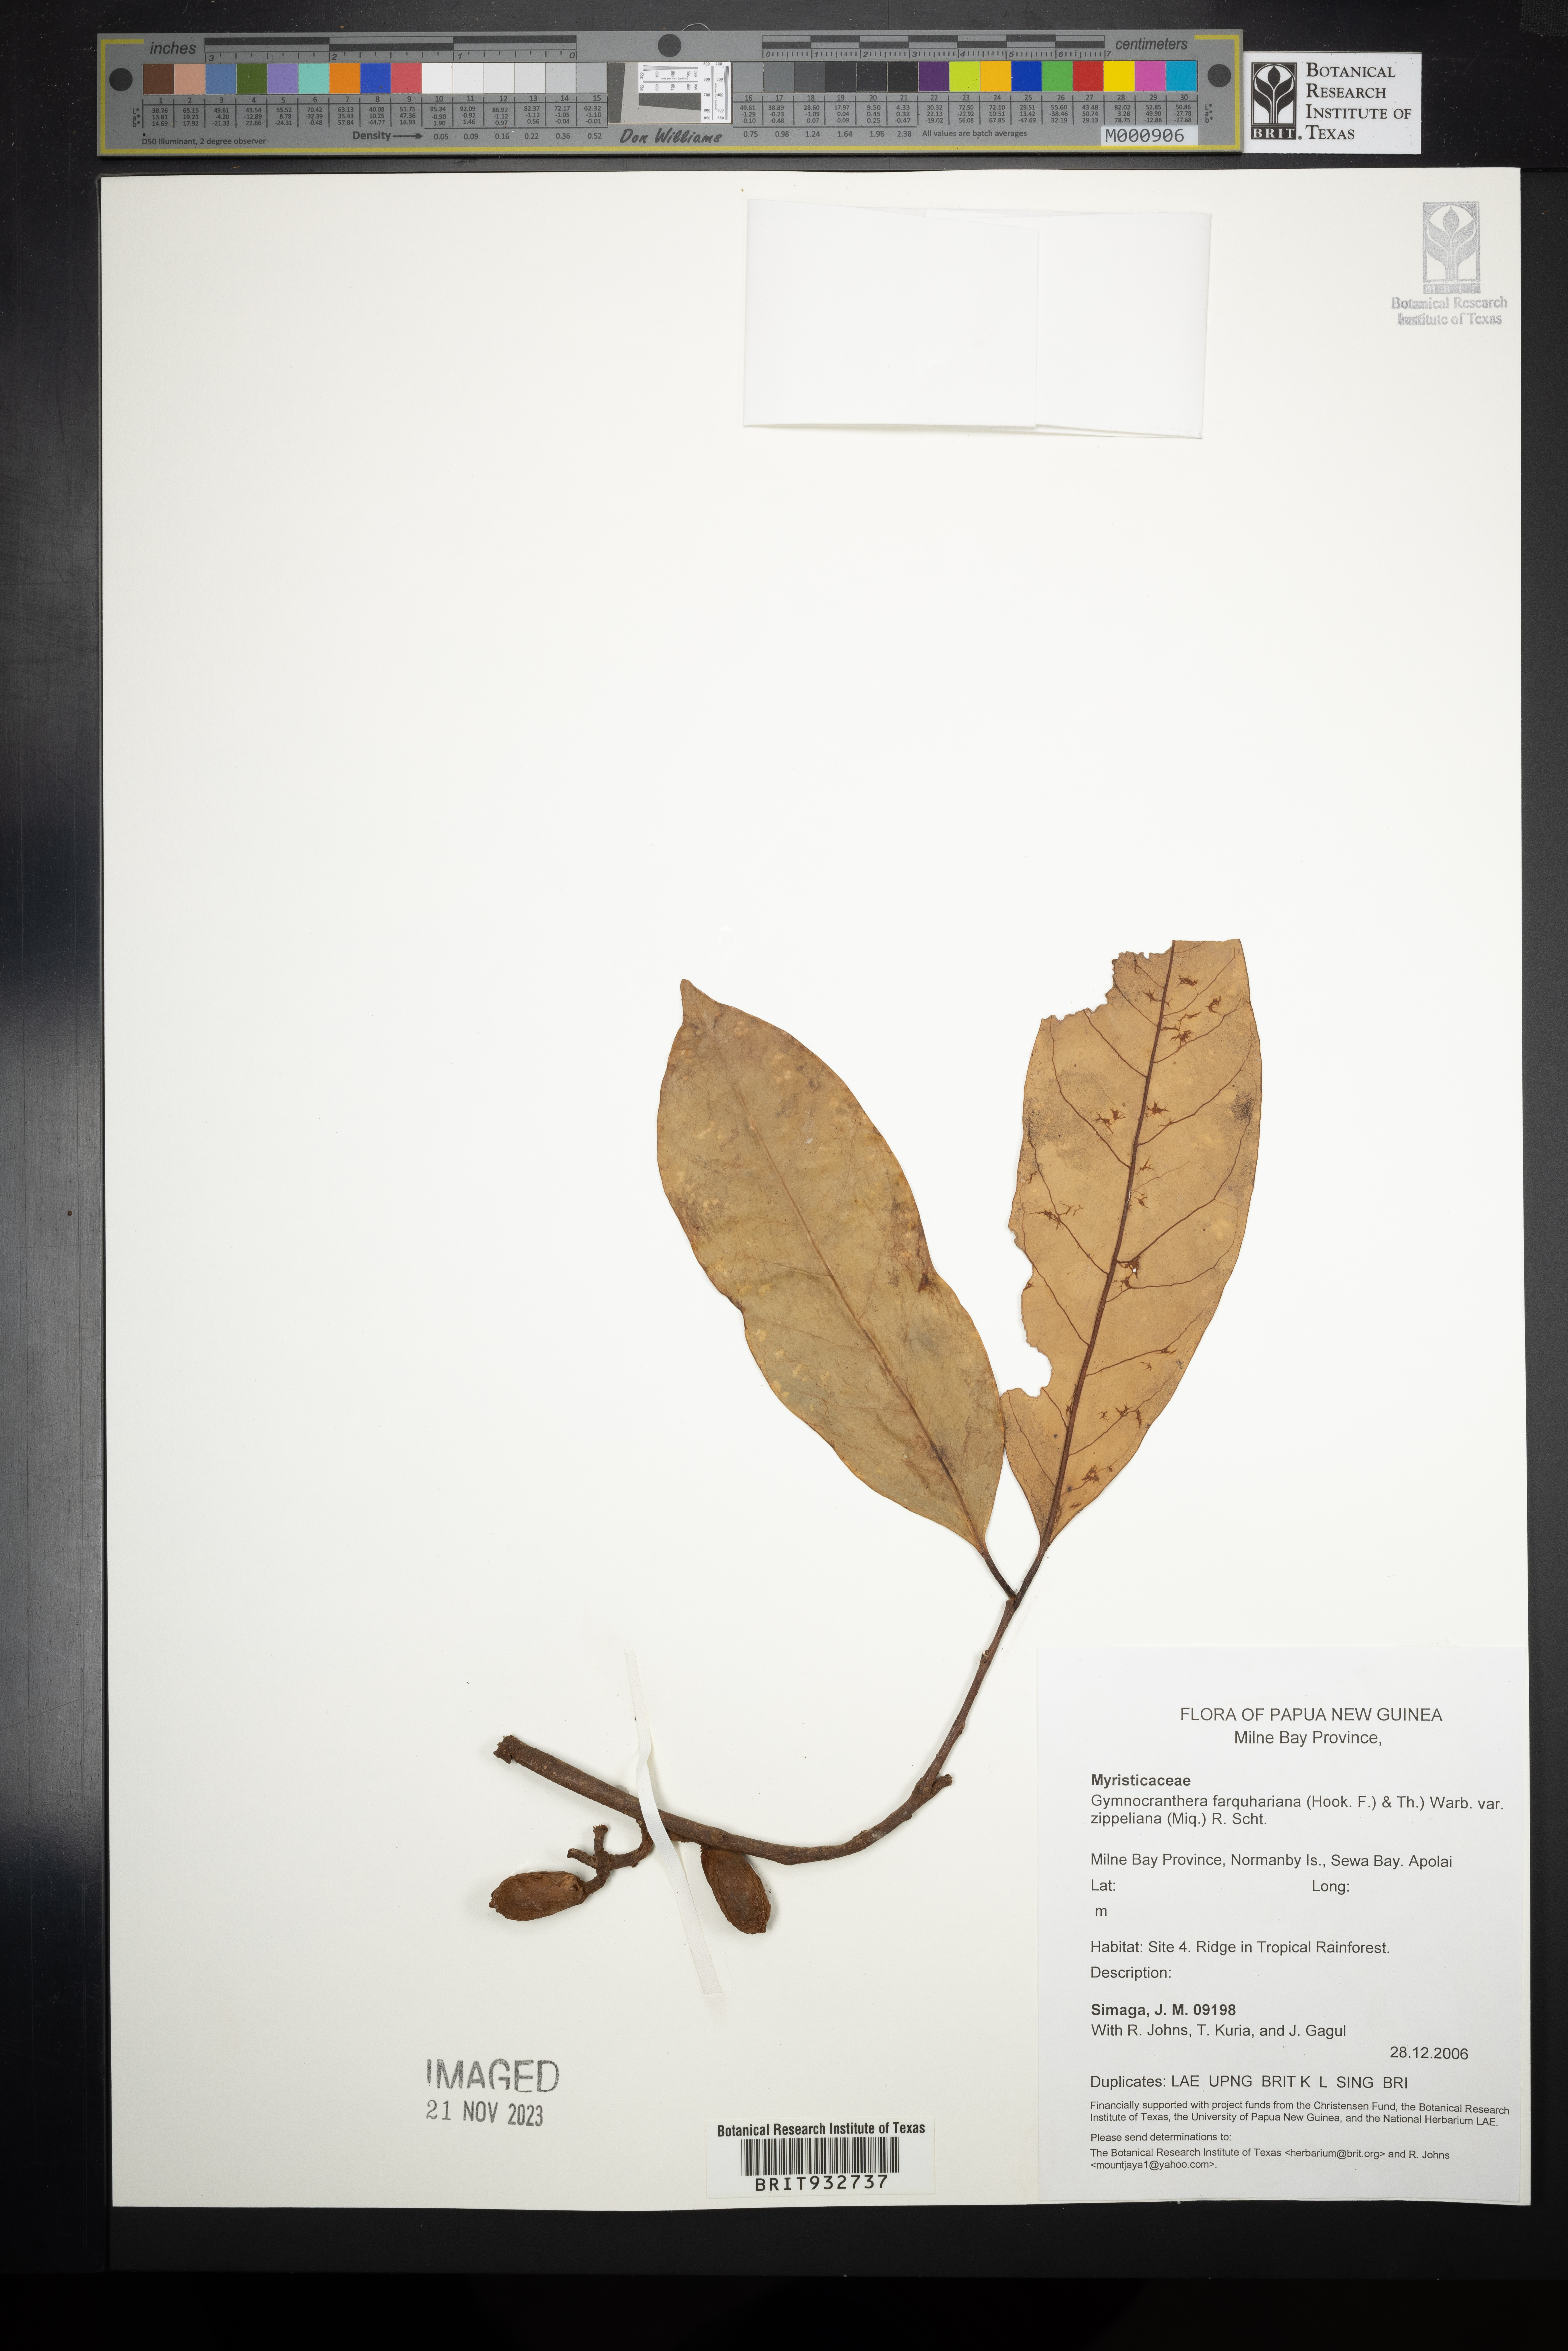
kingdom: Plantae
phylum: Tracheophyta
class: Magnoliopsida
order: Magnoliales
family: Myristicaceae
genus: Gymnacranthera
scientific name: Gymnacranthera
